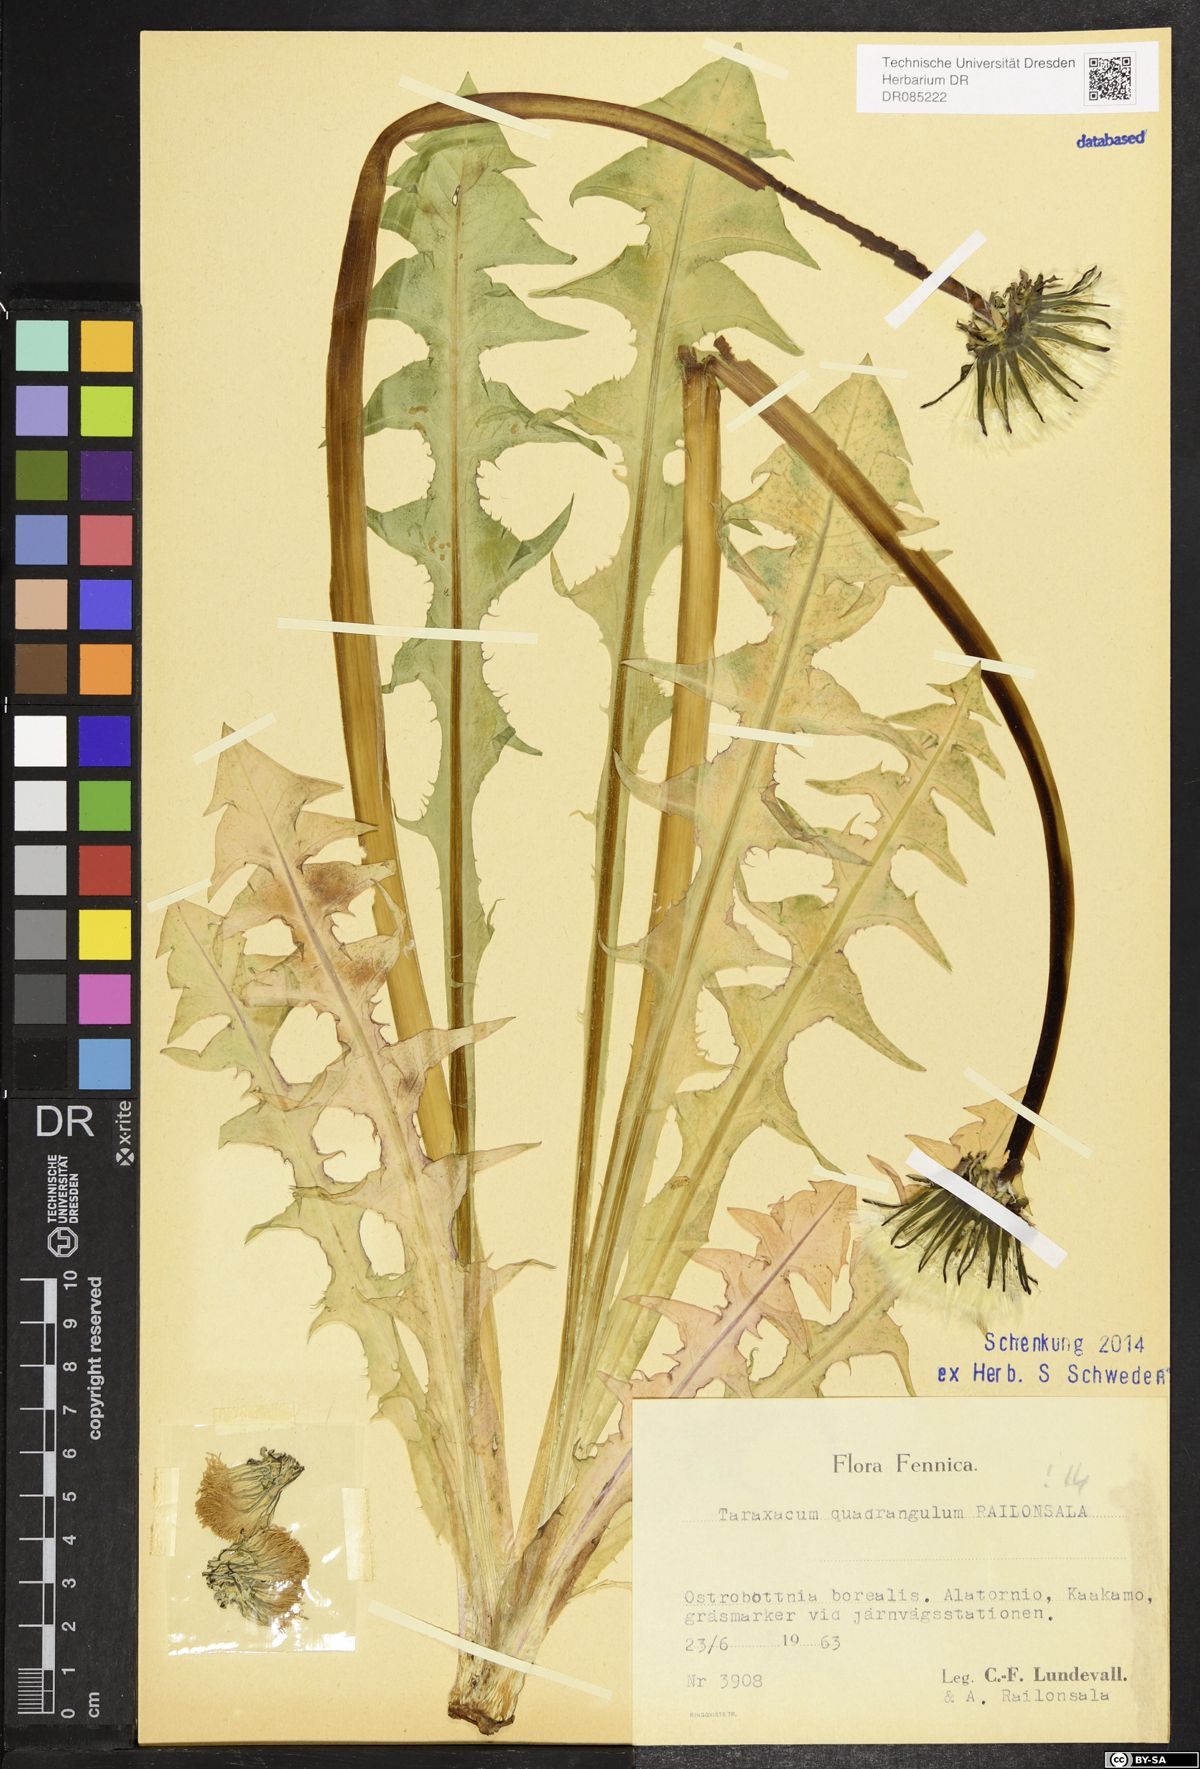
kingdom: Plantae
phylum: Tracheophyta
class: Magnoliopsida
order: Asterales
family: Asteraceae
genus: Taraxacum
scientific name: Taraxacum quadrangulum
